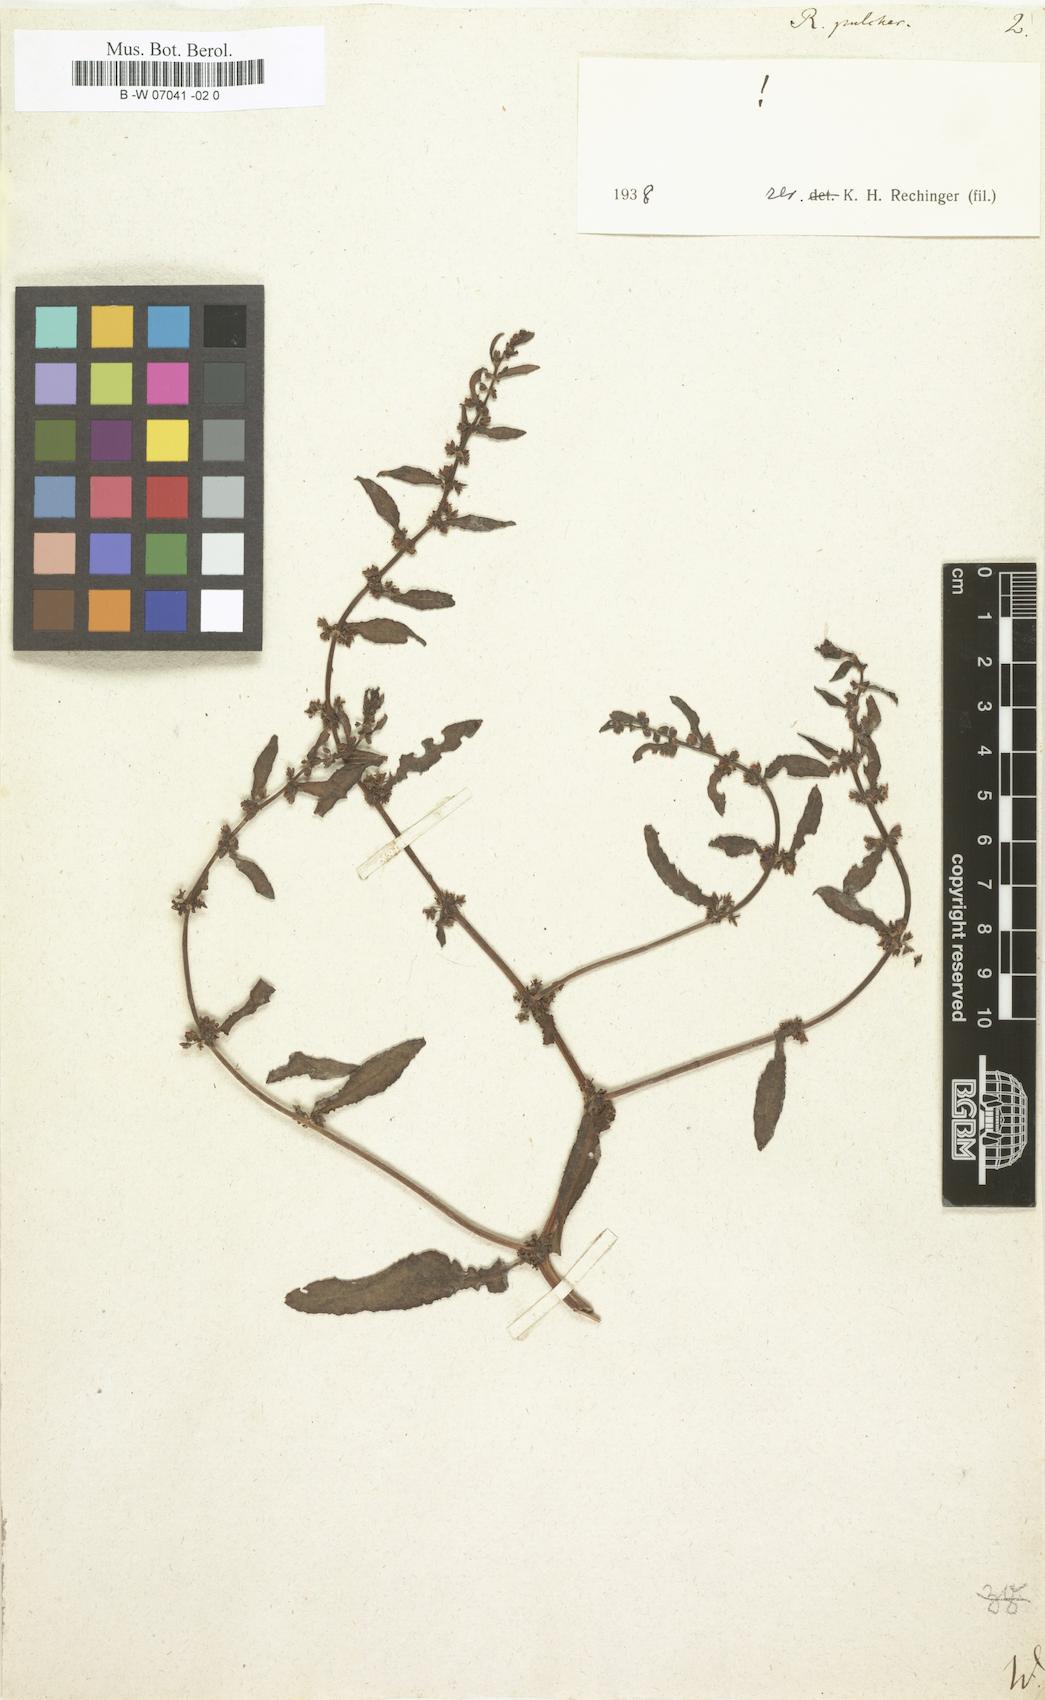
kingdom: Plantae
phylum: Tracheophyta
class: Magnoliopsida
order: Caryophyllales
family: Polygonaceae
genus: Rumex
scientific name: Rumex pulcher
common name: Fiddle dock
